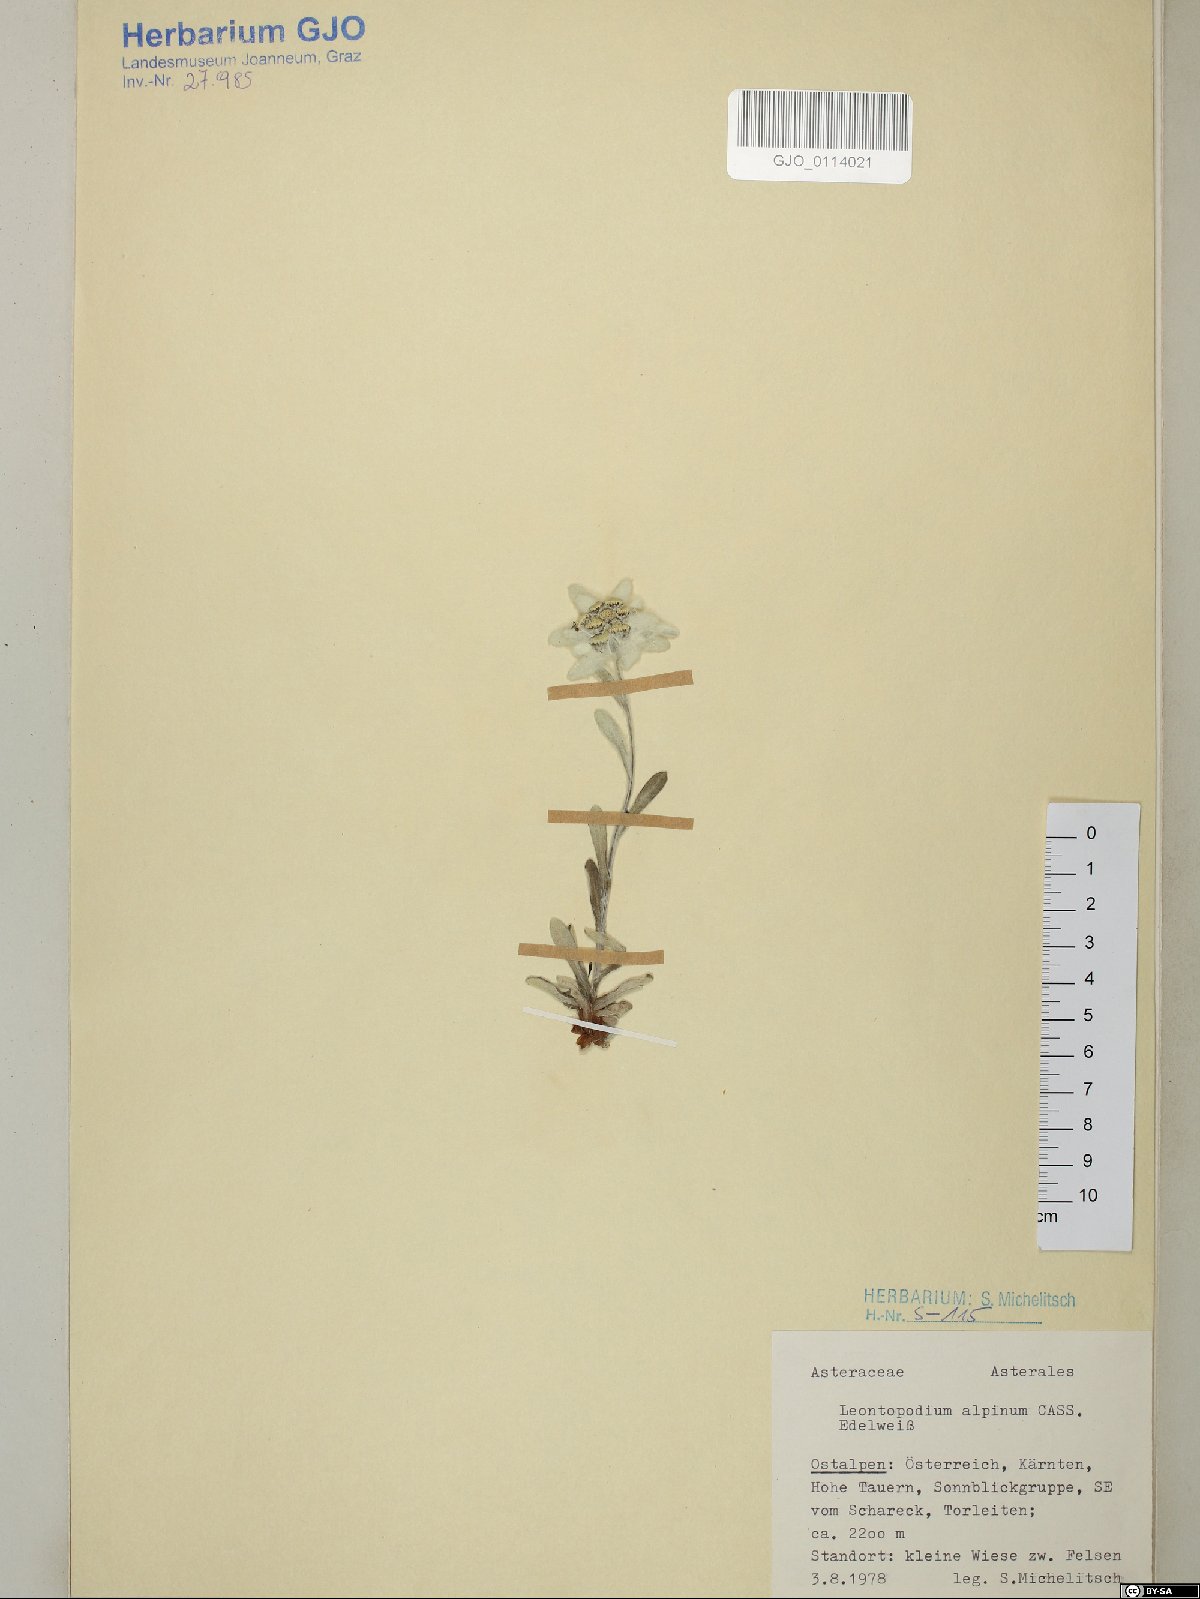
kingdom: Plantae
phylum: Tracheophyta
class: Magnoliopsida
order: Asterales
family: Asteraceae
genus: Leontopodium
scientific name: Leontopodium nivale
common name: Edelweiss
